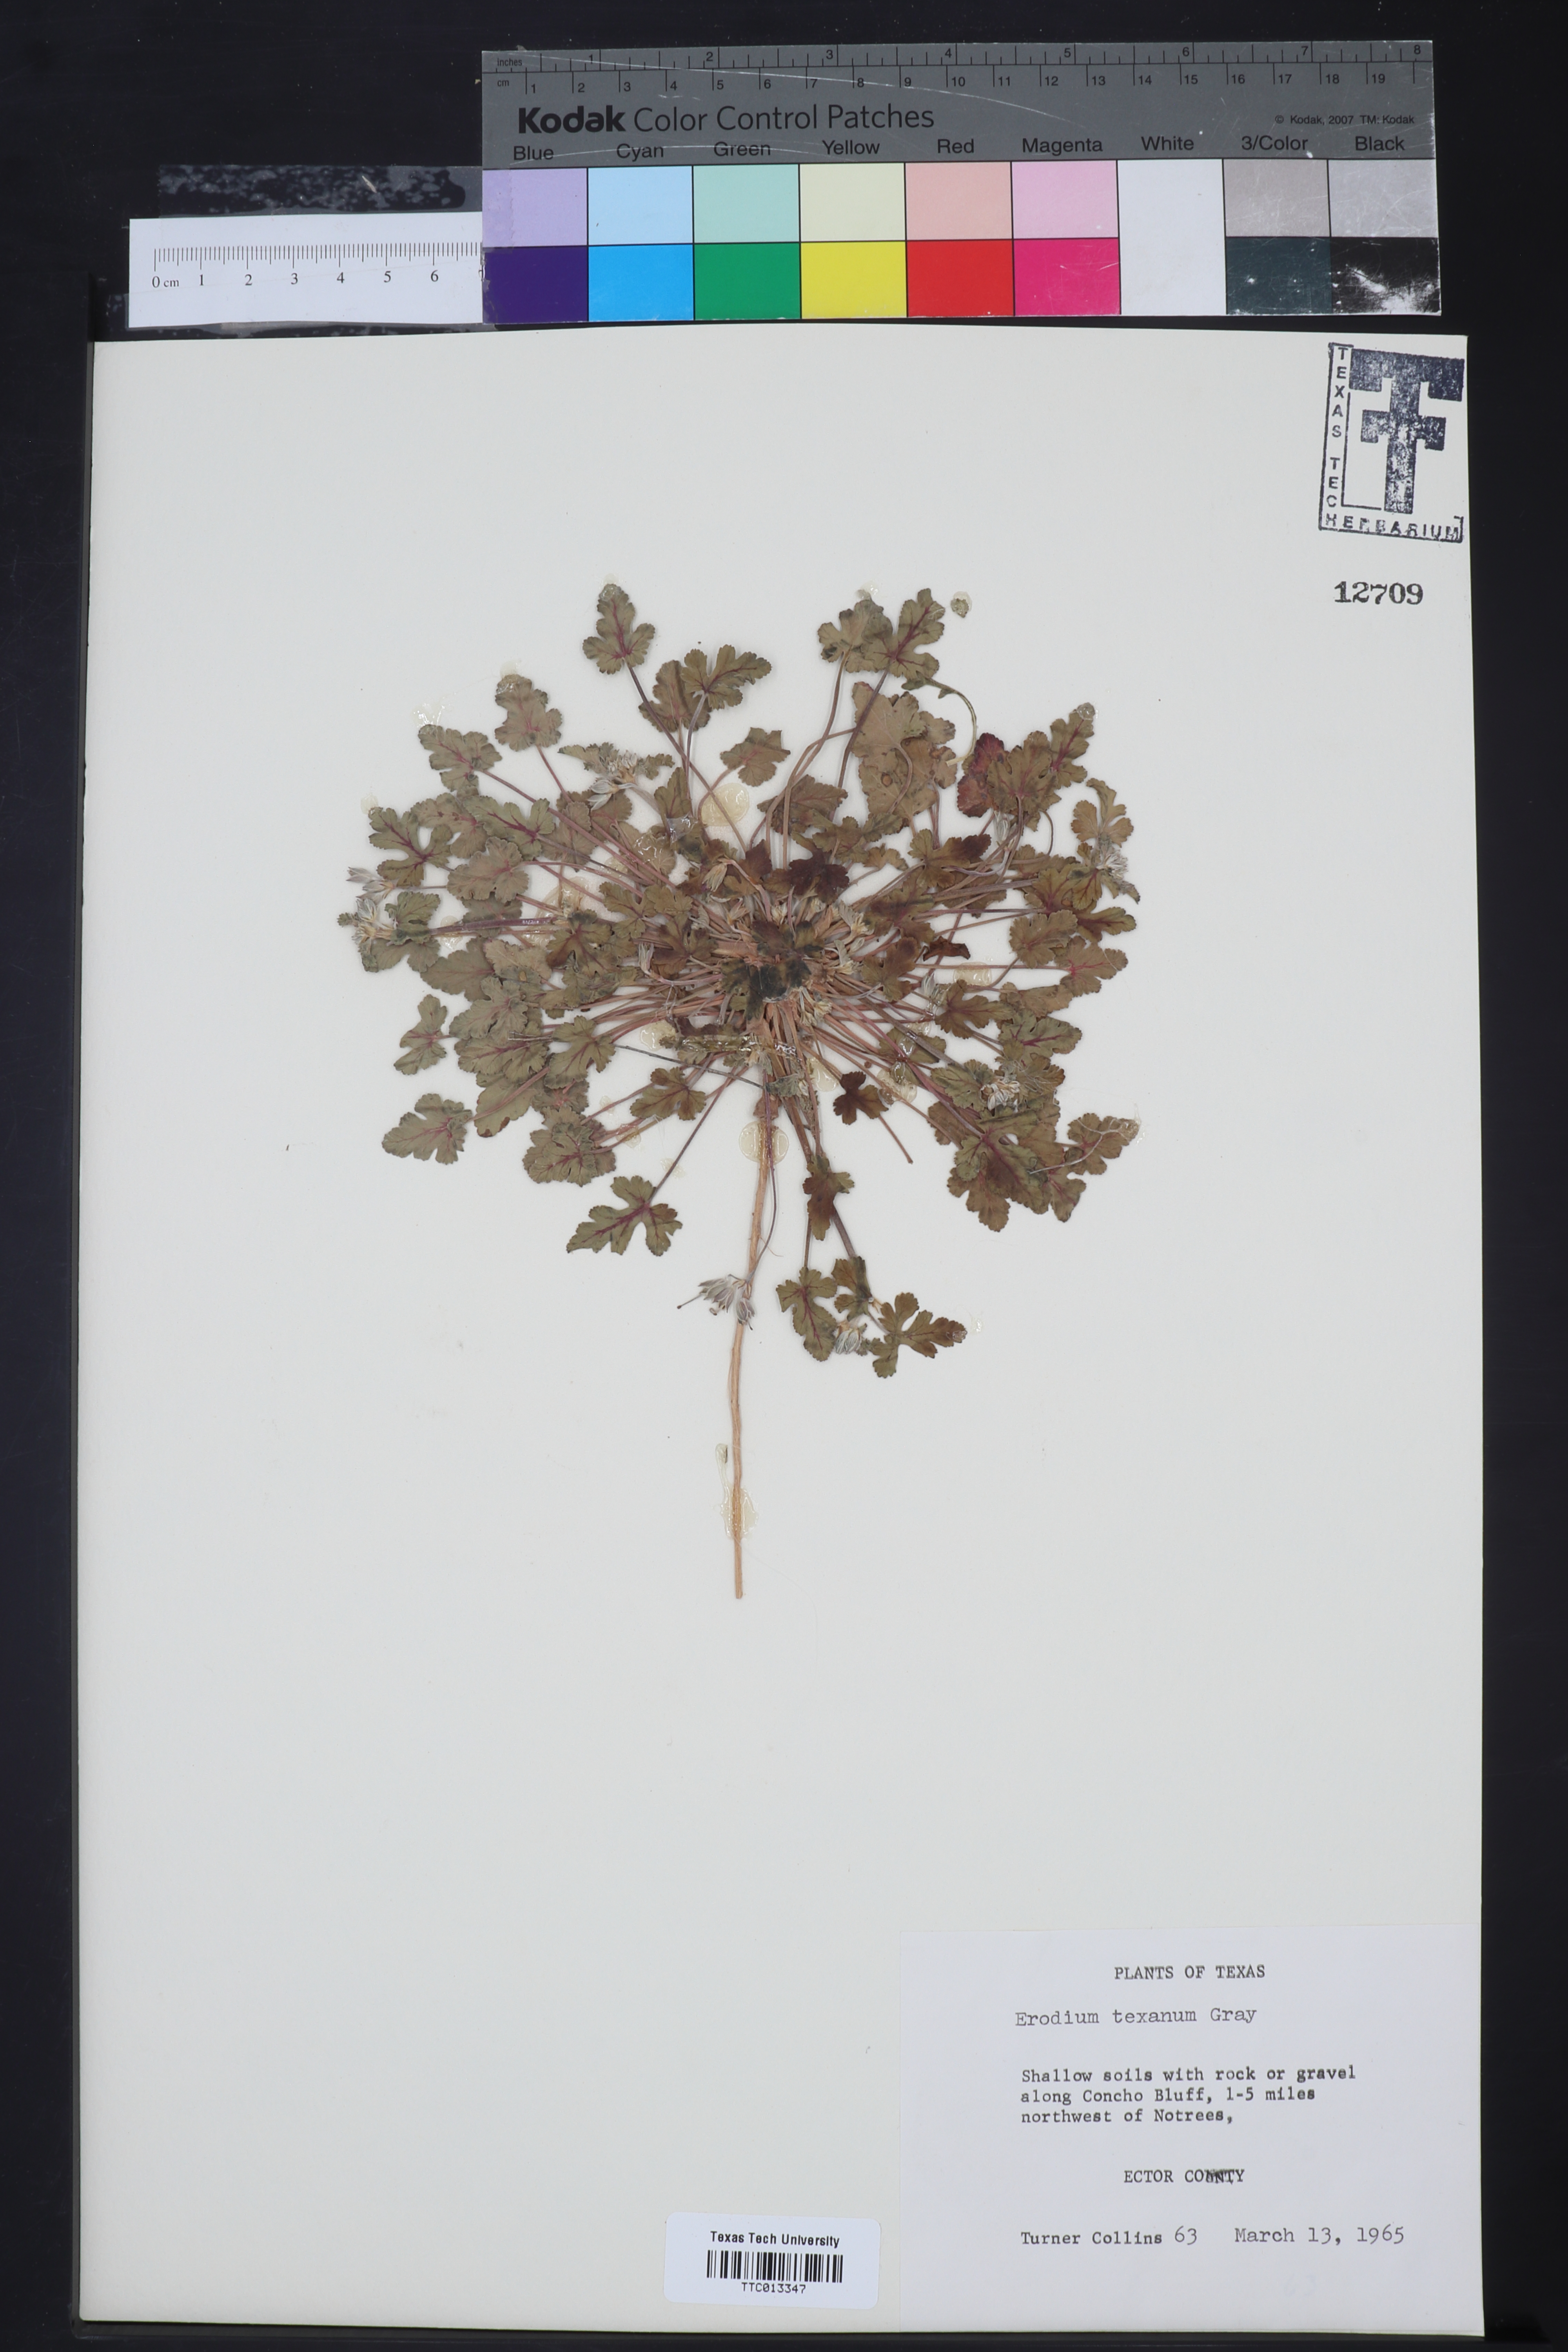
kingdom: Plantae
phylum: Tracheophyta
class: Magnoliopsida
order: Geraniales
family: Geraniaceae
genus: Erodium
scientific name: Erodium texanum
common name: Texas stork's-bill
